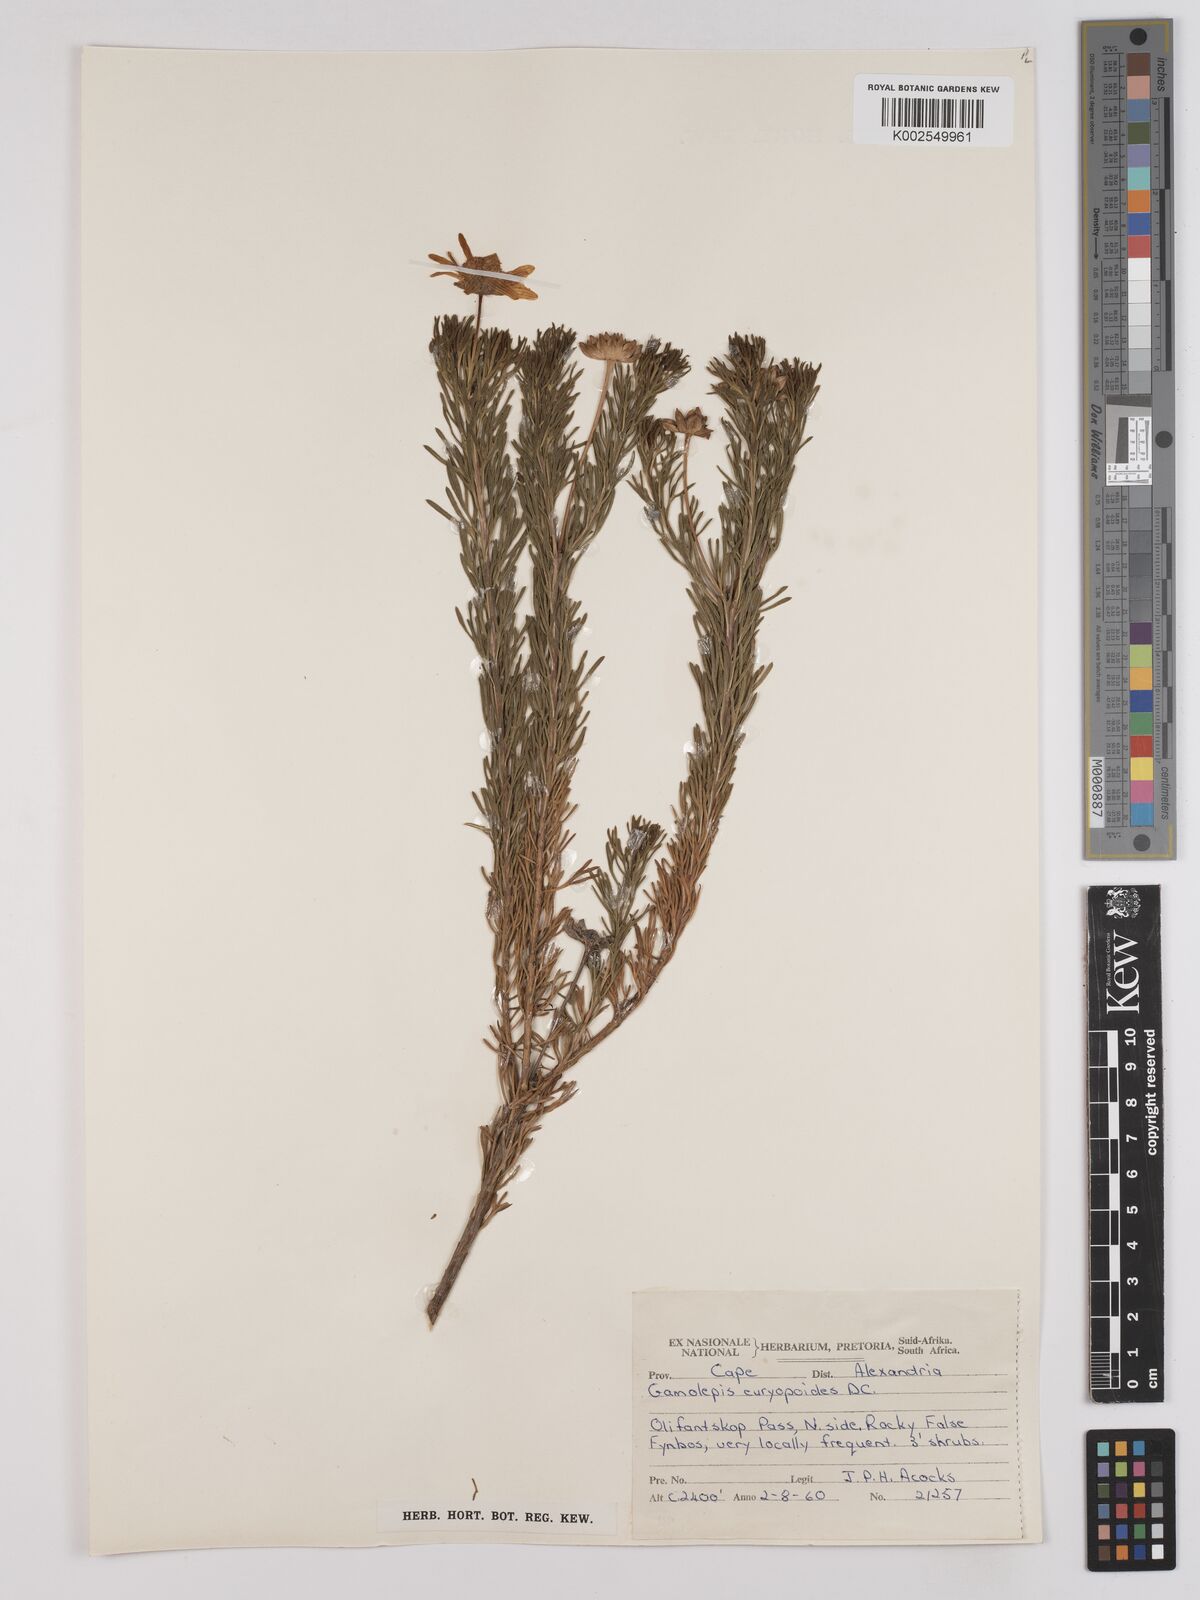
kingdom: Plantae
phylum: Tracheophyta
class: Magnoliopsida
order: Asterales
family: Asteraceae
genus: Euryops
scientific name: Euryops euryopoides
